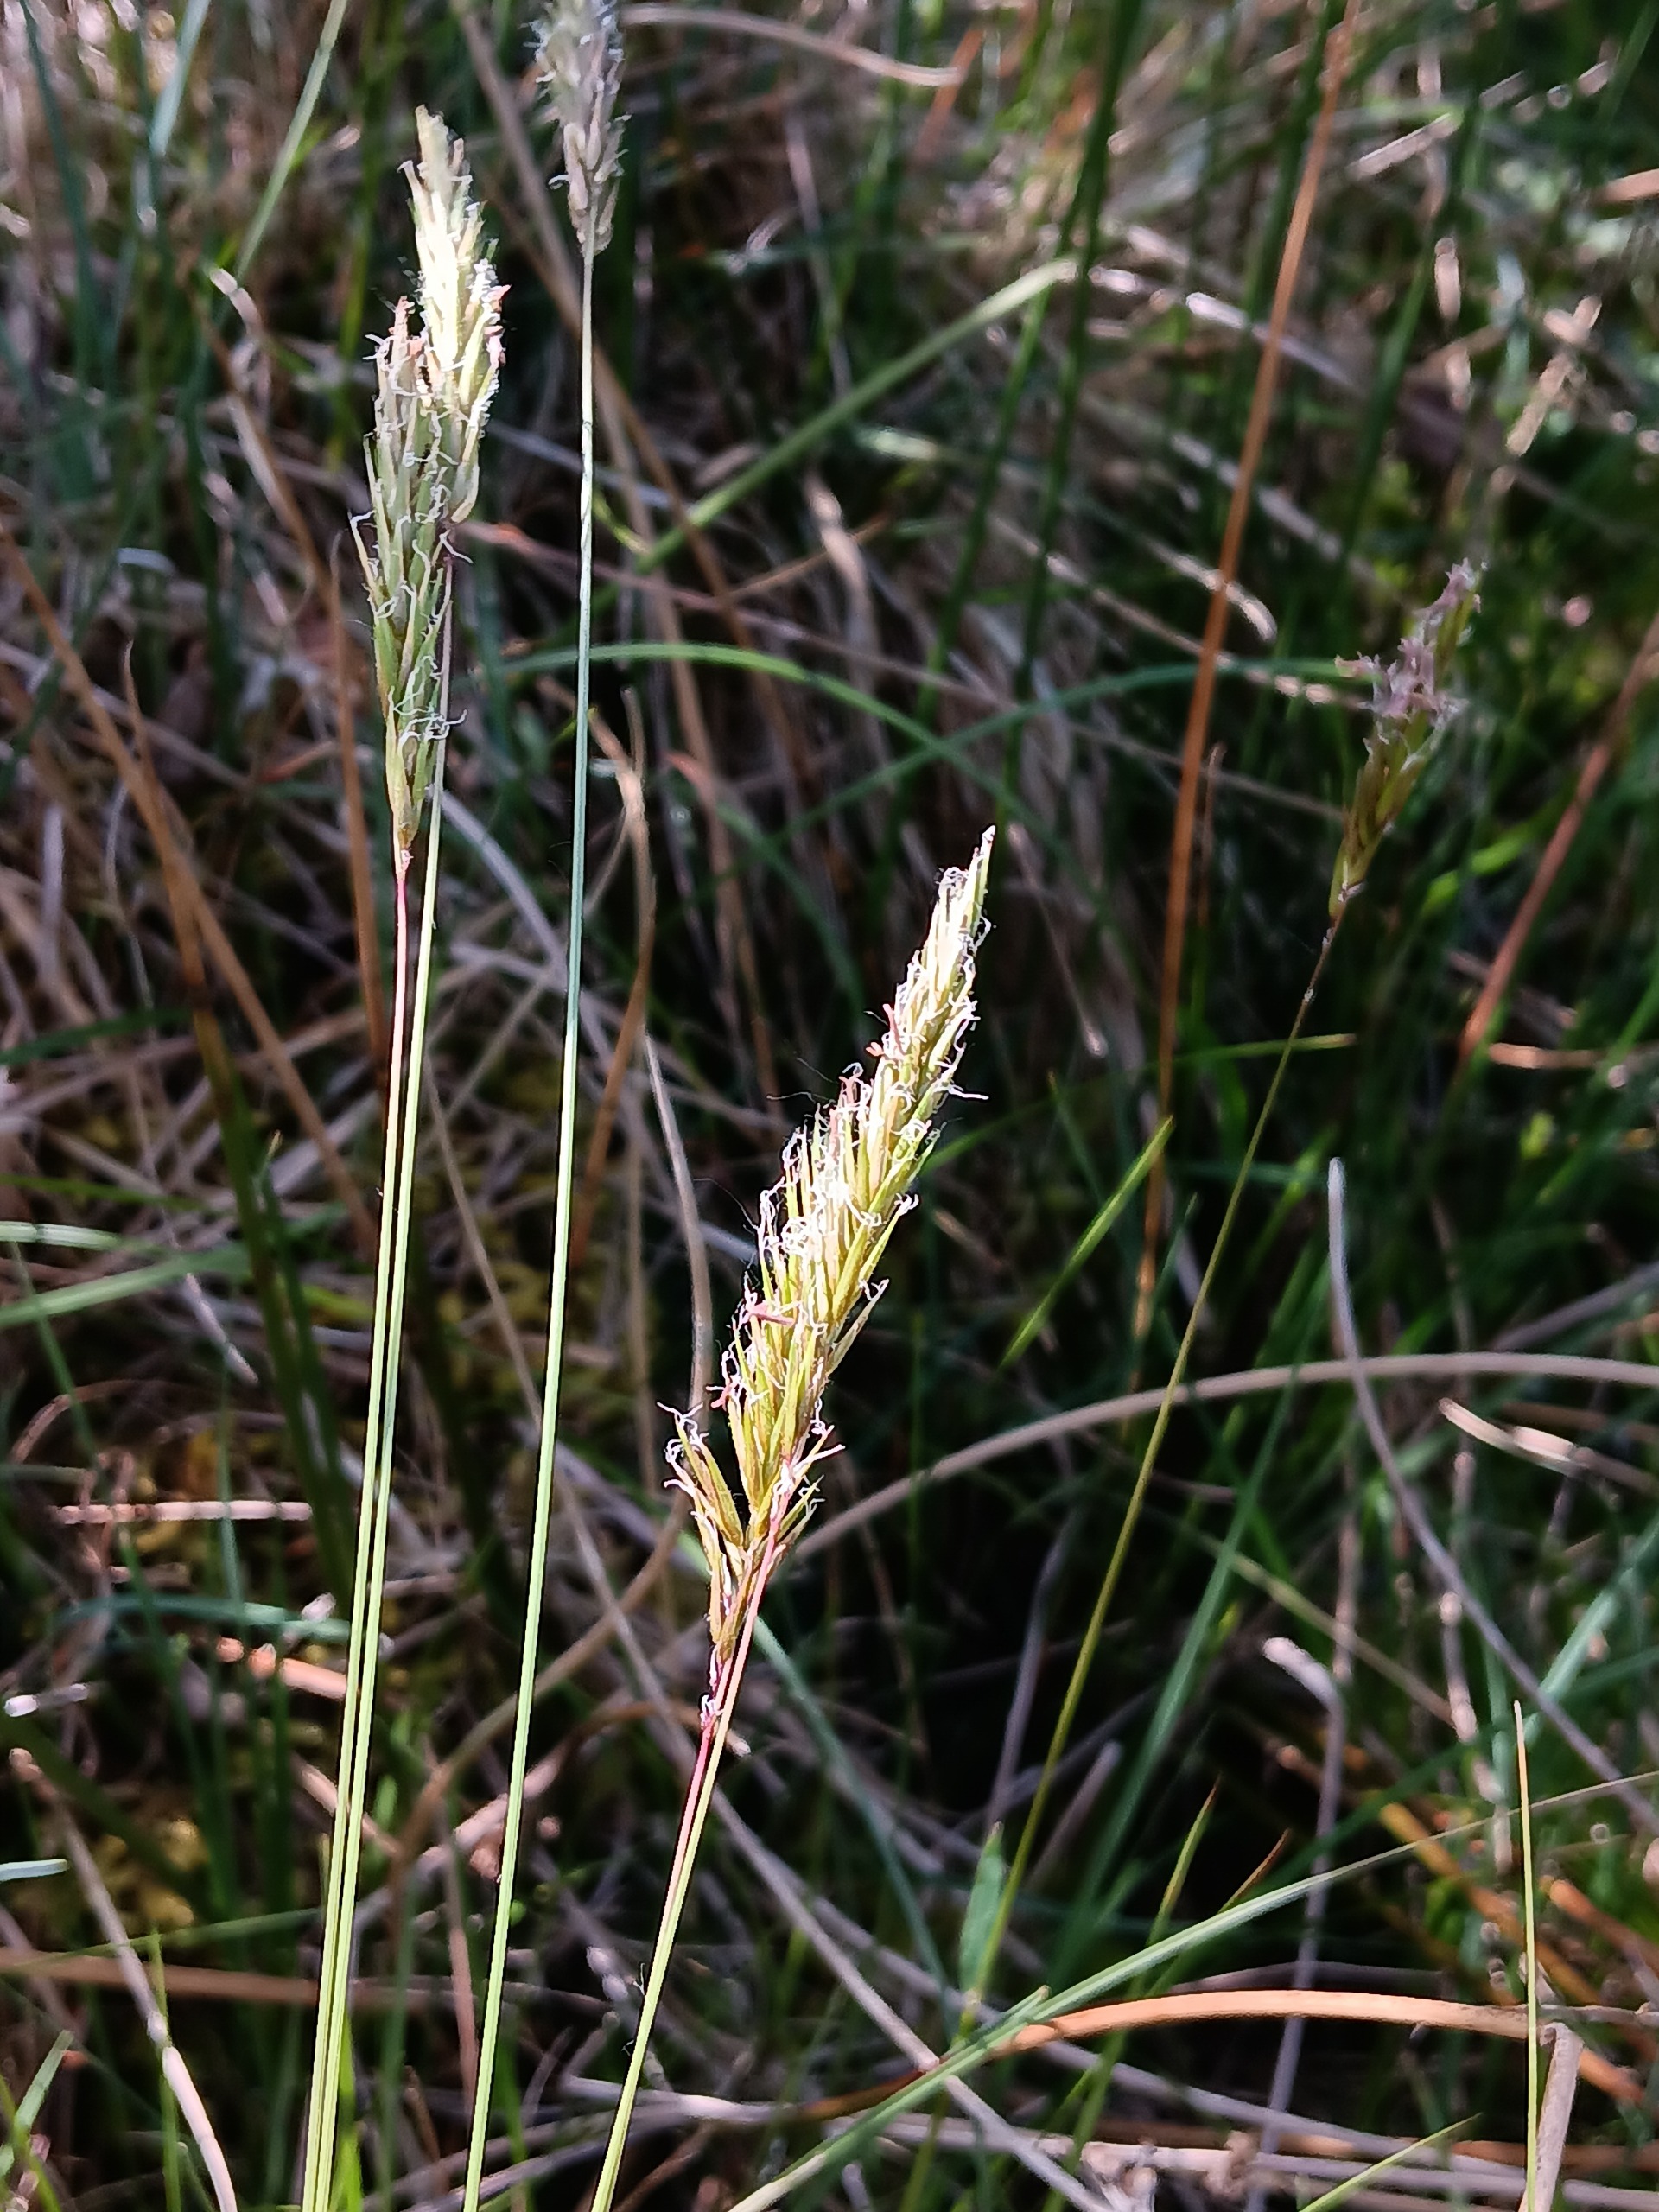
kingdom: Plantae
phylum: Tracheophyta
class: Liliopsida
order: Poales
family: Poaceae
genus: Anthoxanthum
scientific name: Anthoxanthum odoratum
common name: Vellugtende gulaks
